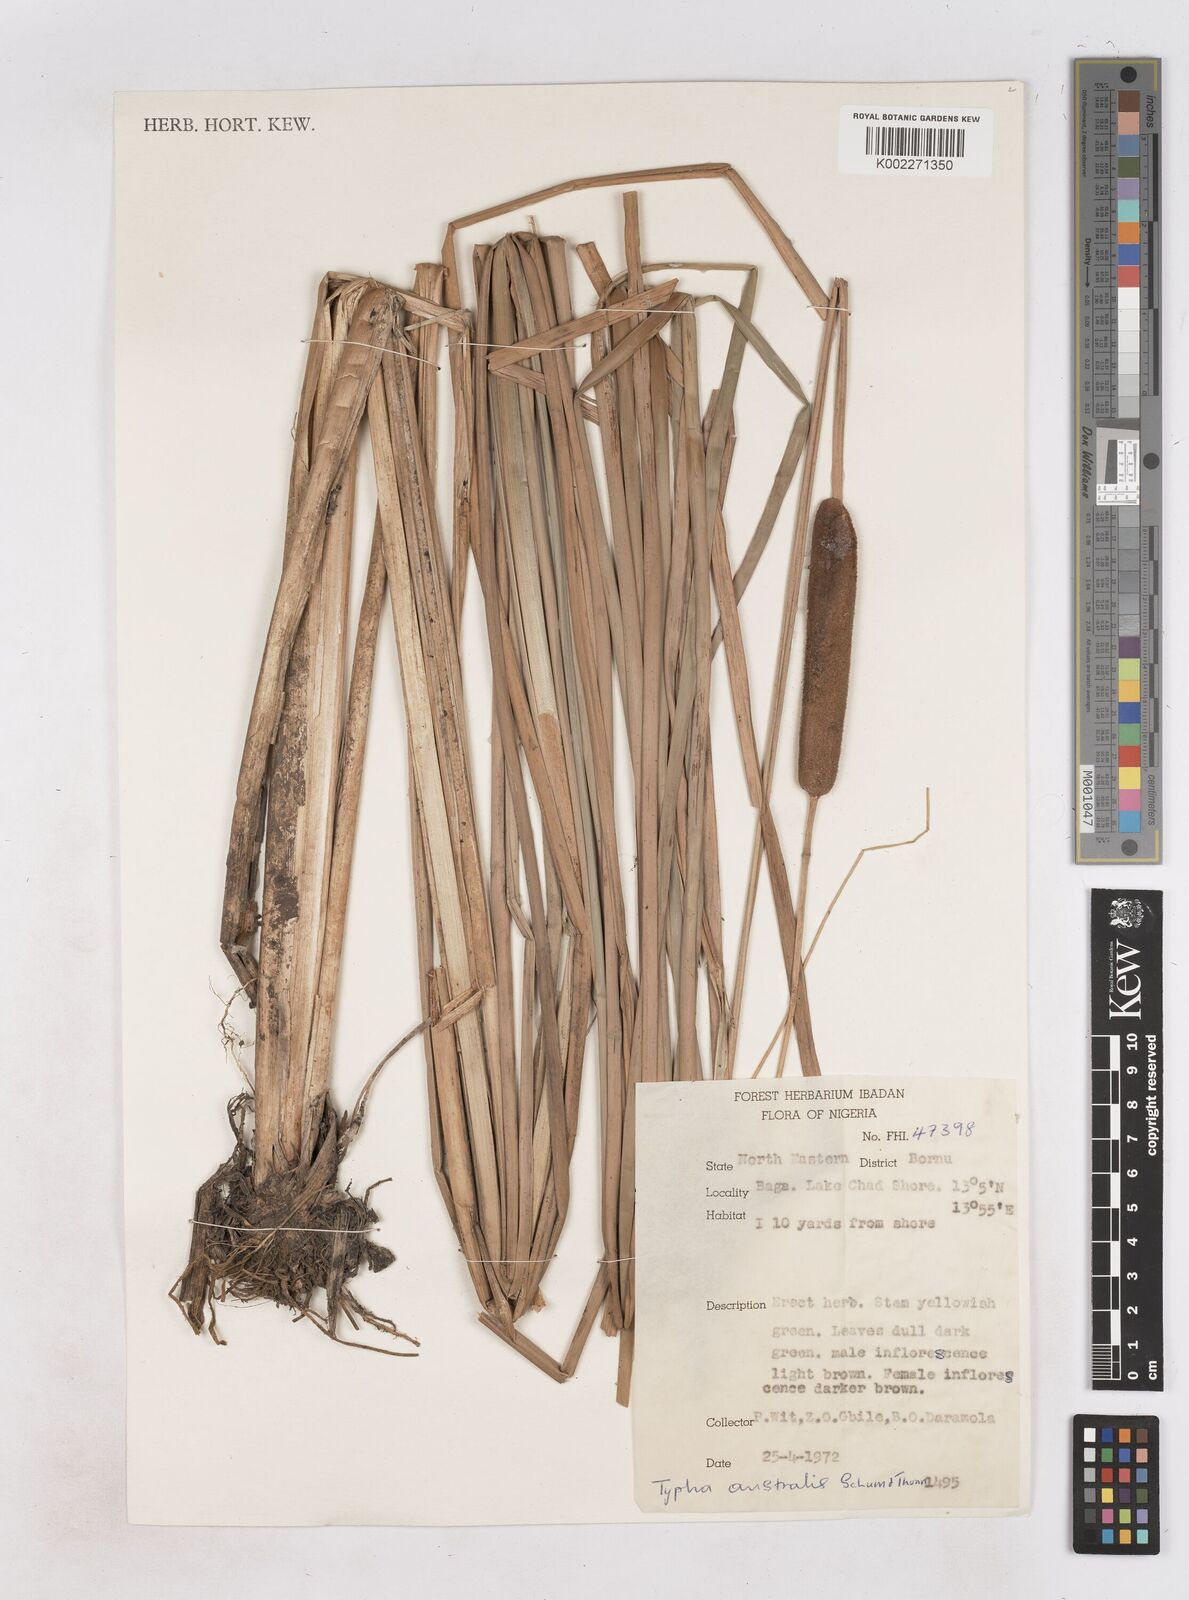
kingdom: Plantae
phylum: Tracheophyta
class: Liliopsida
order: Poales
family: Typhaceae
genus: Typha
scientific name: Typha domingensis
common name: Southern cattail
